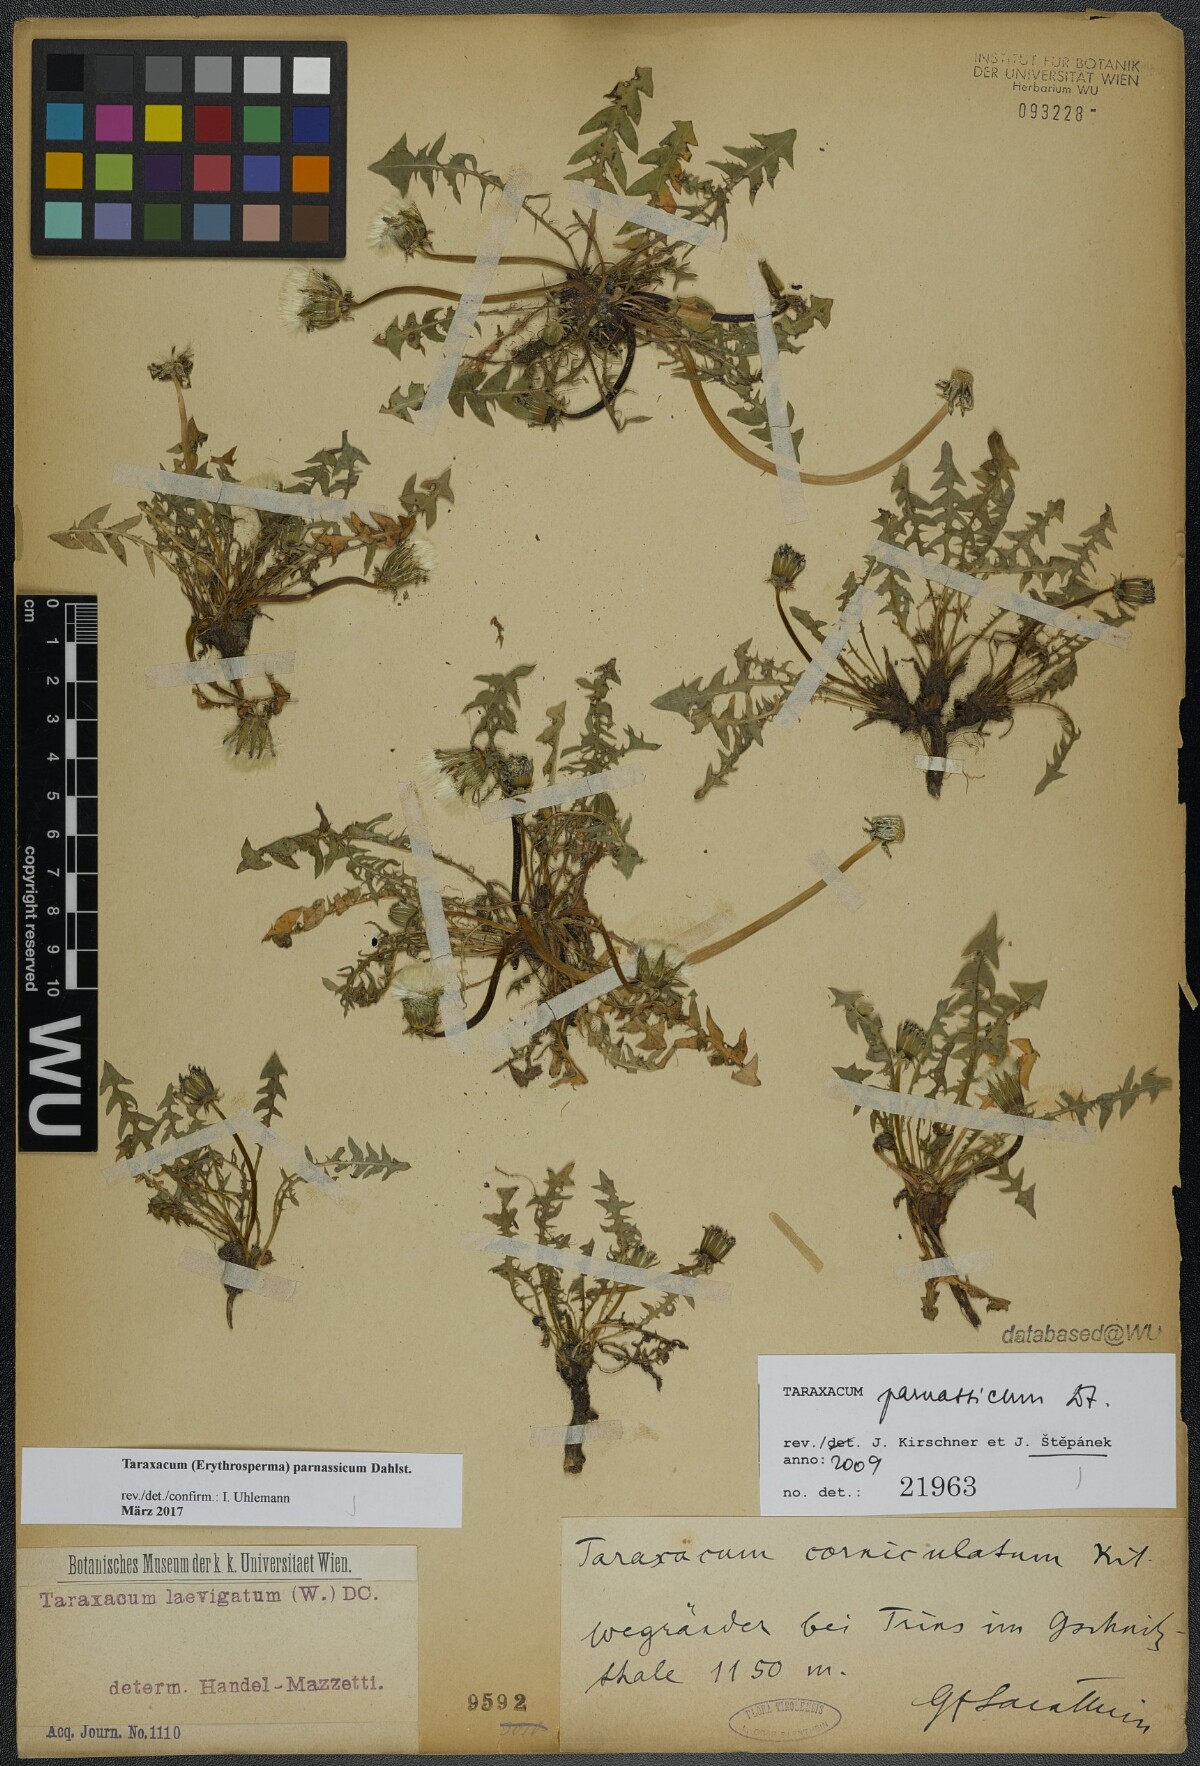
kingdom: Plantae
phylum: Tracheophyta
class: Magnoliopsida
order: Asterales
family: Asteraceae
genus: Taraxacum
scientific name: Taraxacum parnassicum
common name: Parnassus dandelion
